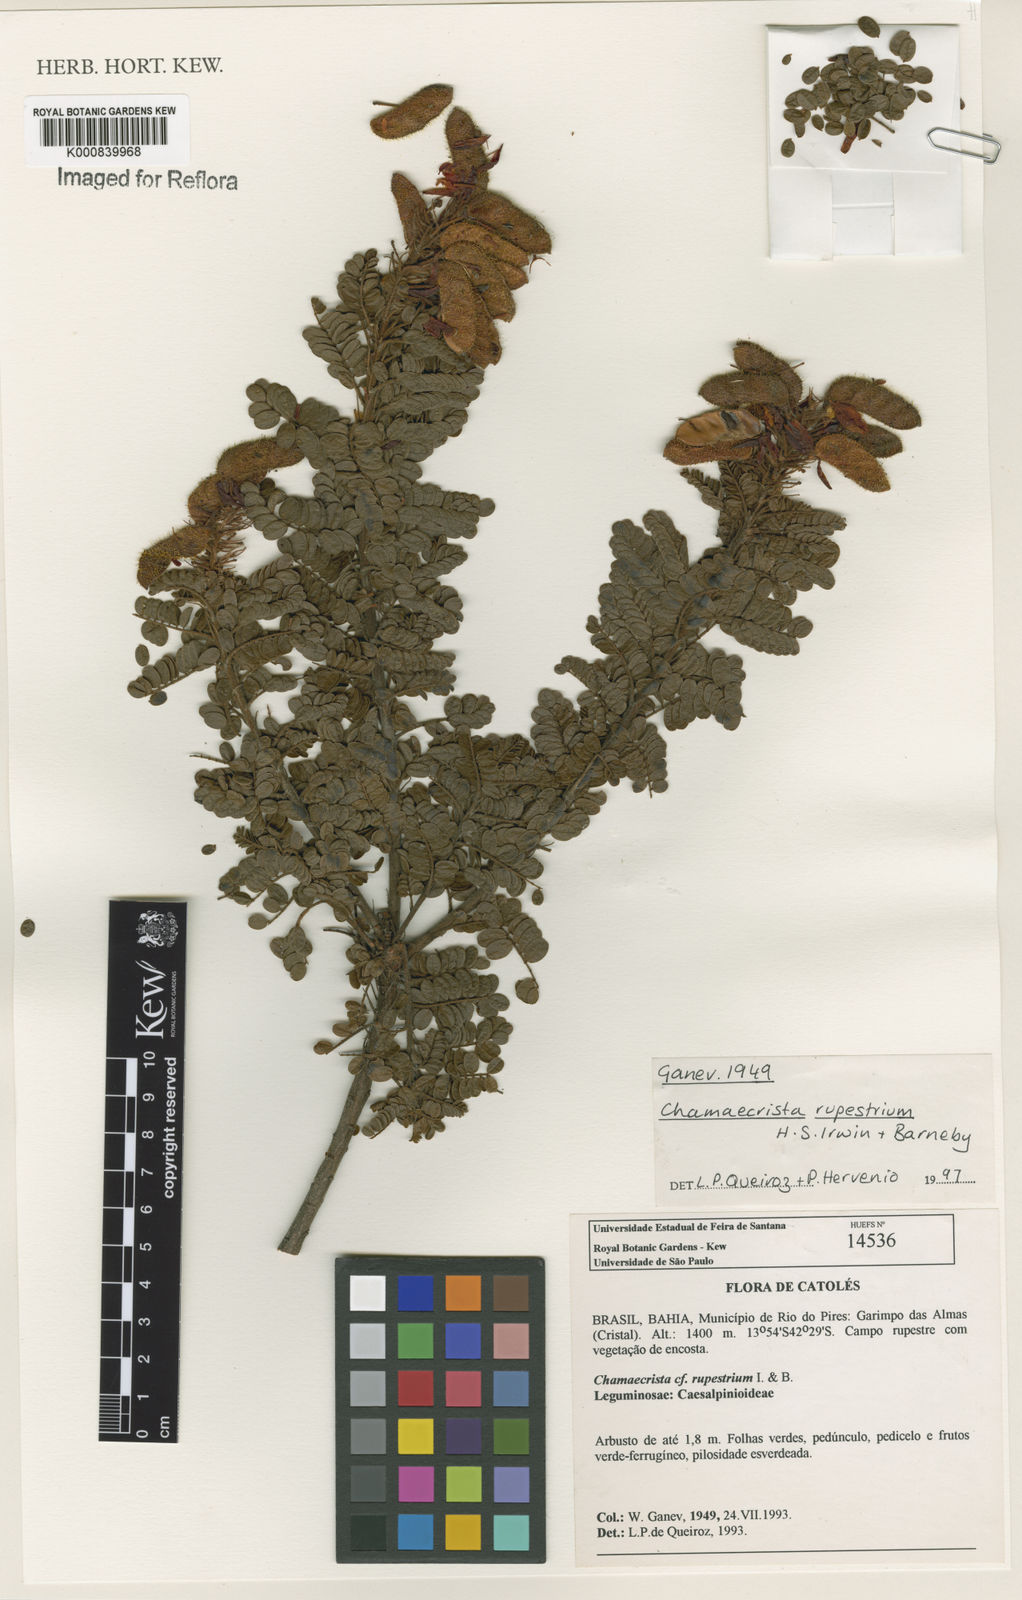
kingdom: Plantae
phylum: Tracheophyta
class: Magnoliopsida
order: Fabales
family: Fabaceae
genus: Chamaecrista
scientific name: Chamaecrista rupestrium
